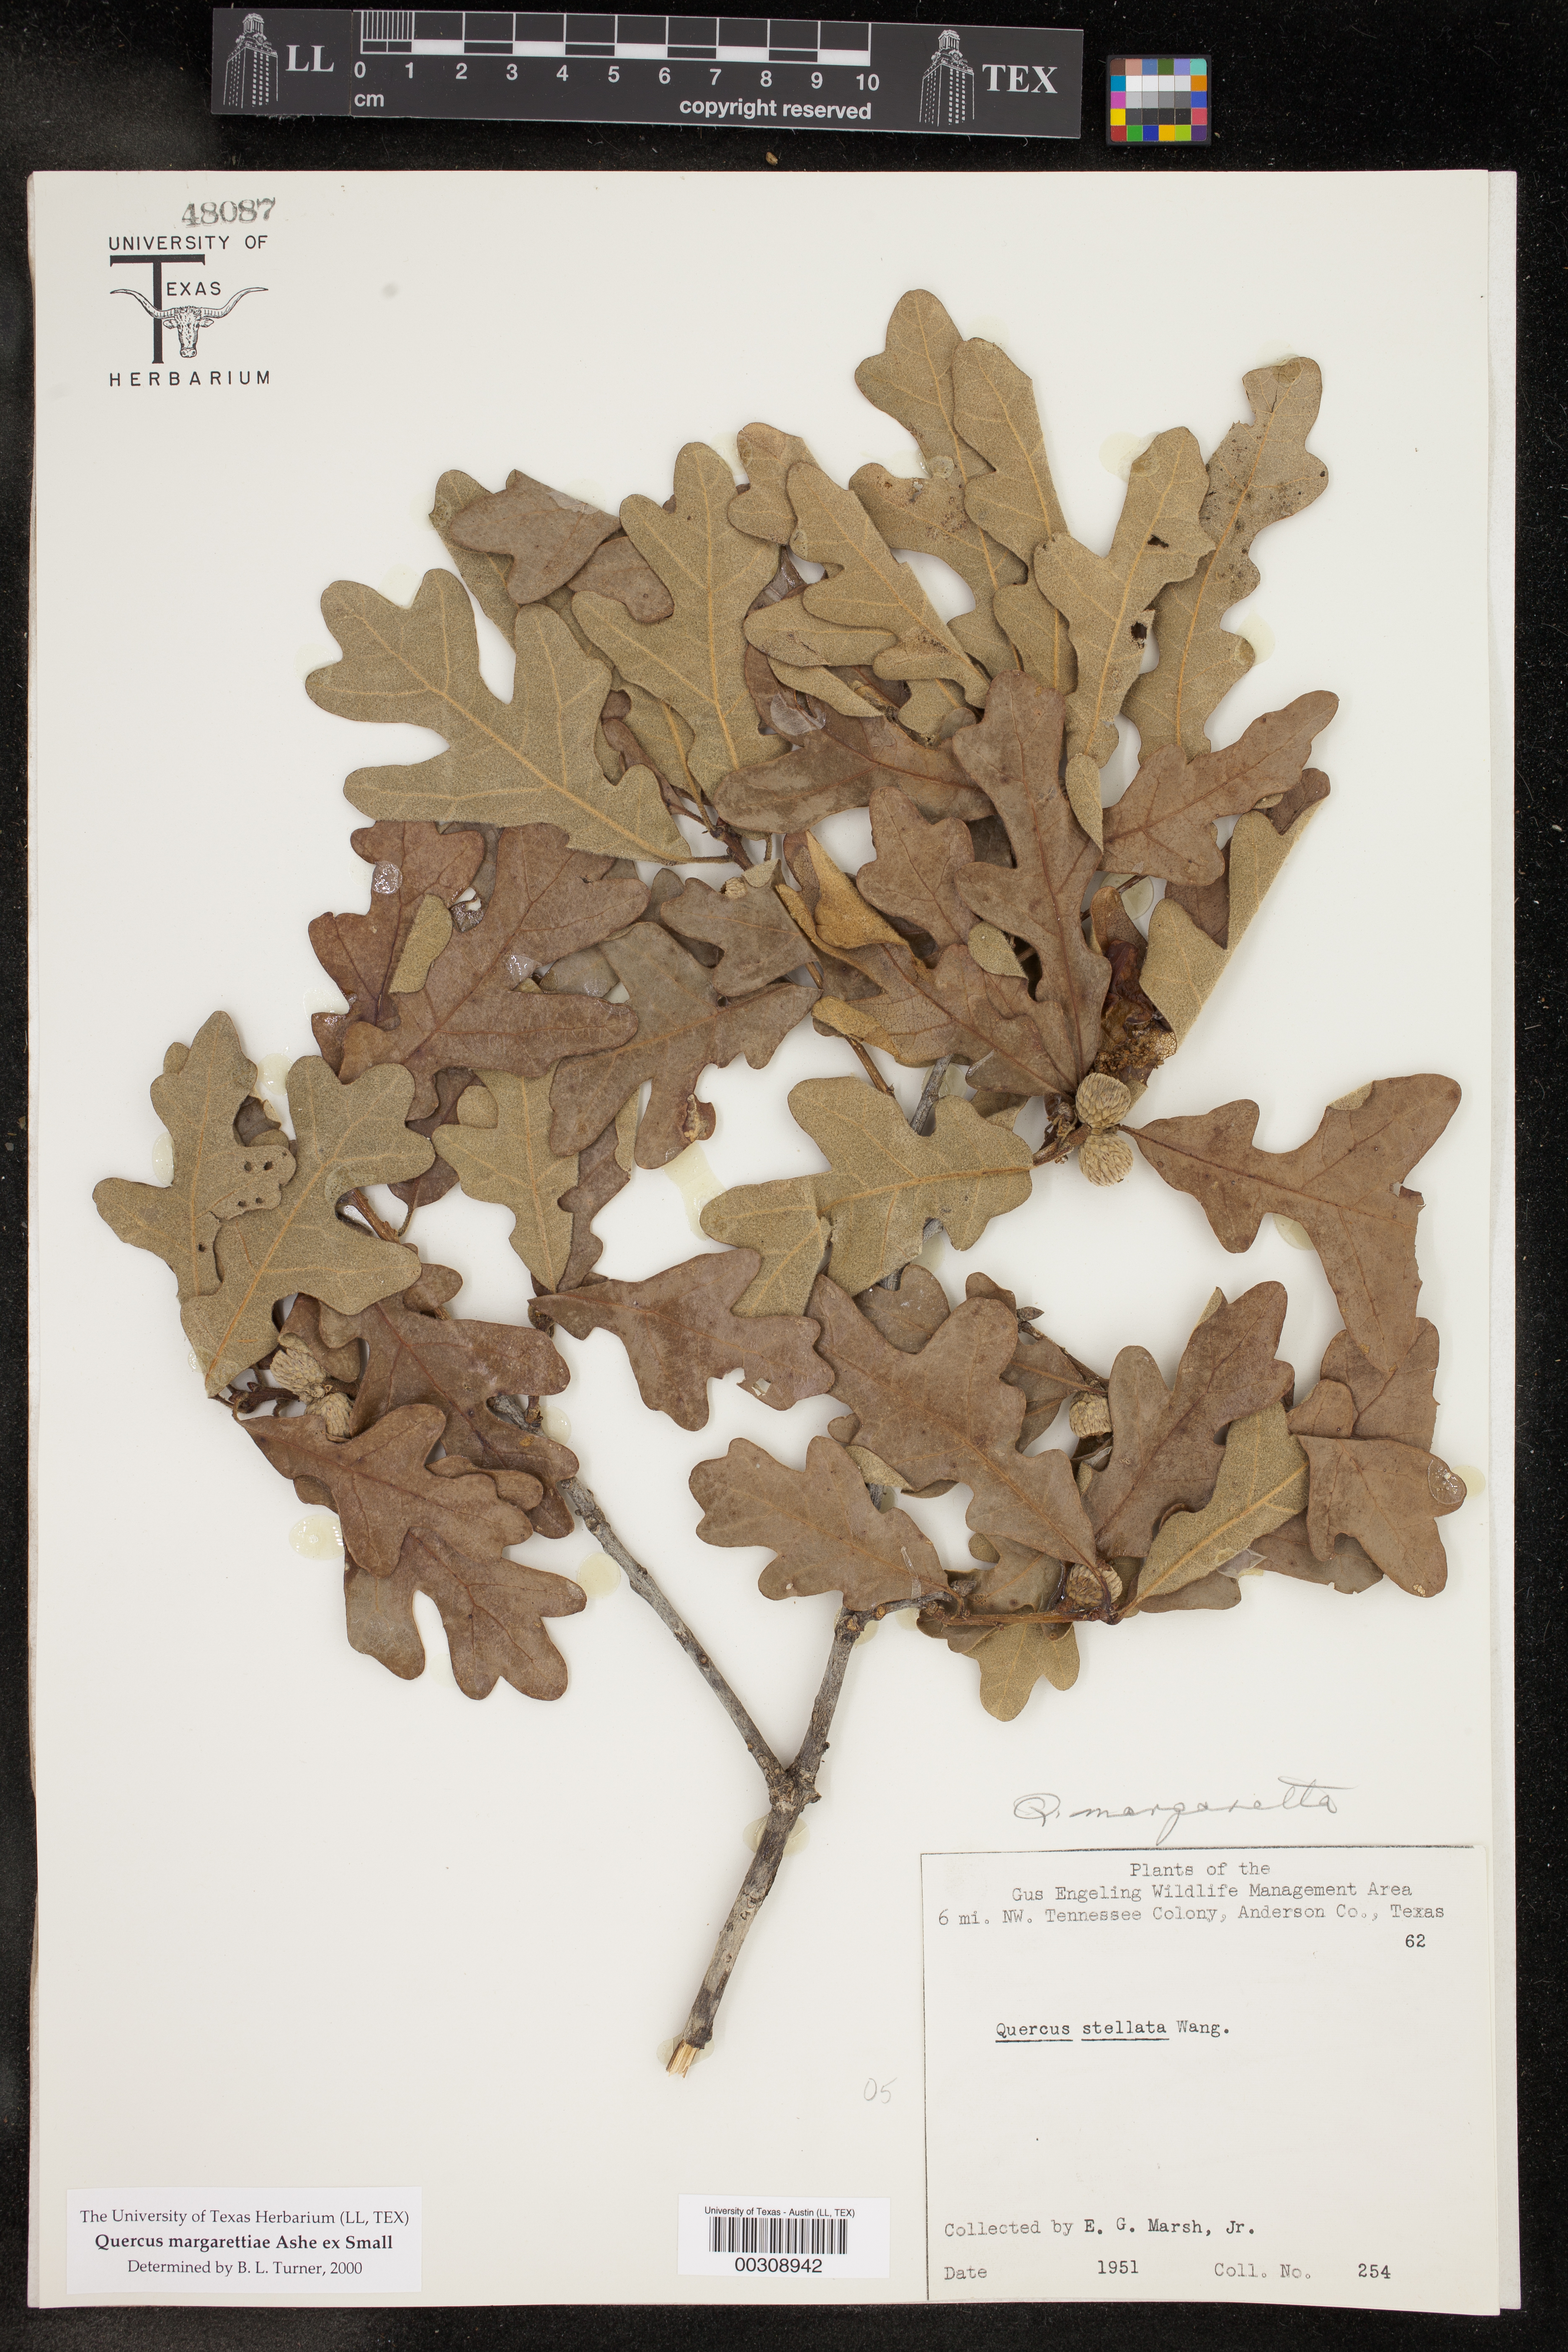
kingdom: Plantae
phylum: Tracheophyta
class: Magnoliopsida
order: Fagales
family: Fagaceae
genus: Quercus
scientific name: Quercus margaretiae
